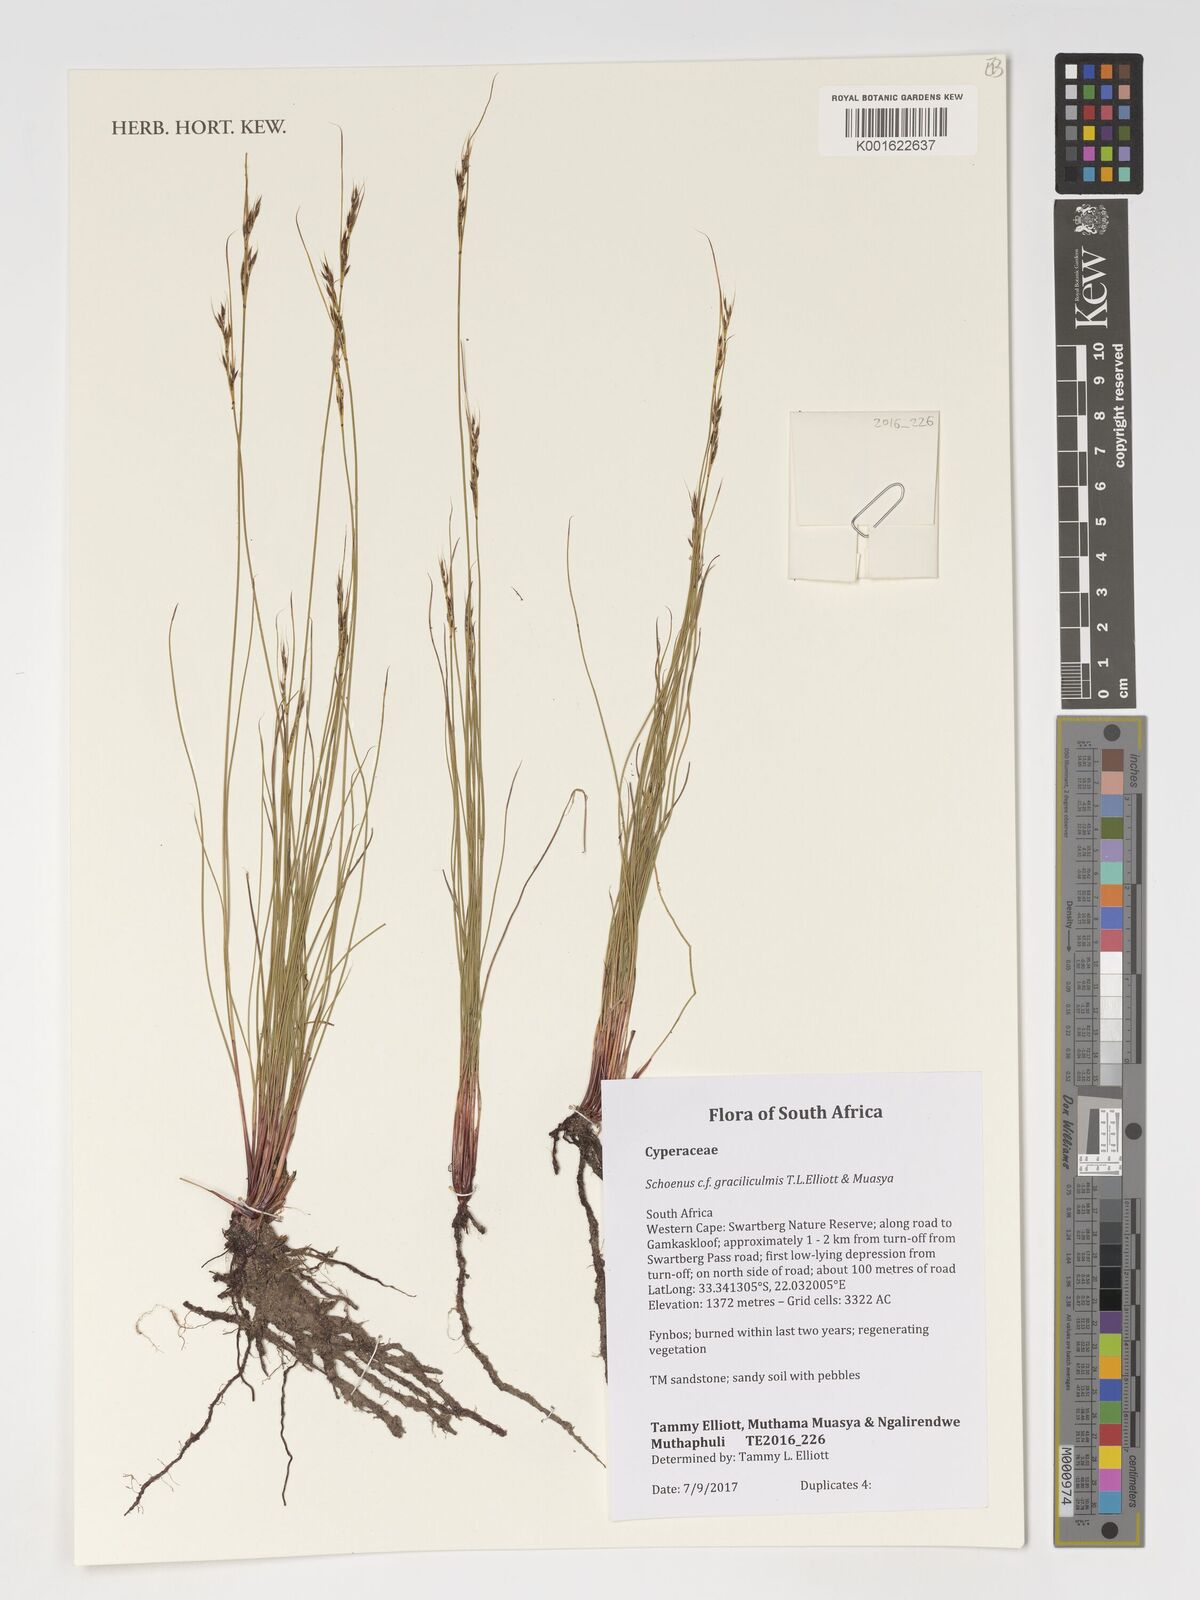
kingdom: Plantae
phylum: Tracheophyta
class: Liliopsida
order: Poales
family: Cyperaceae
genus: Schoenus
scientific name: Schoenus
